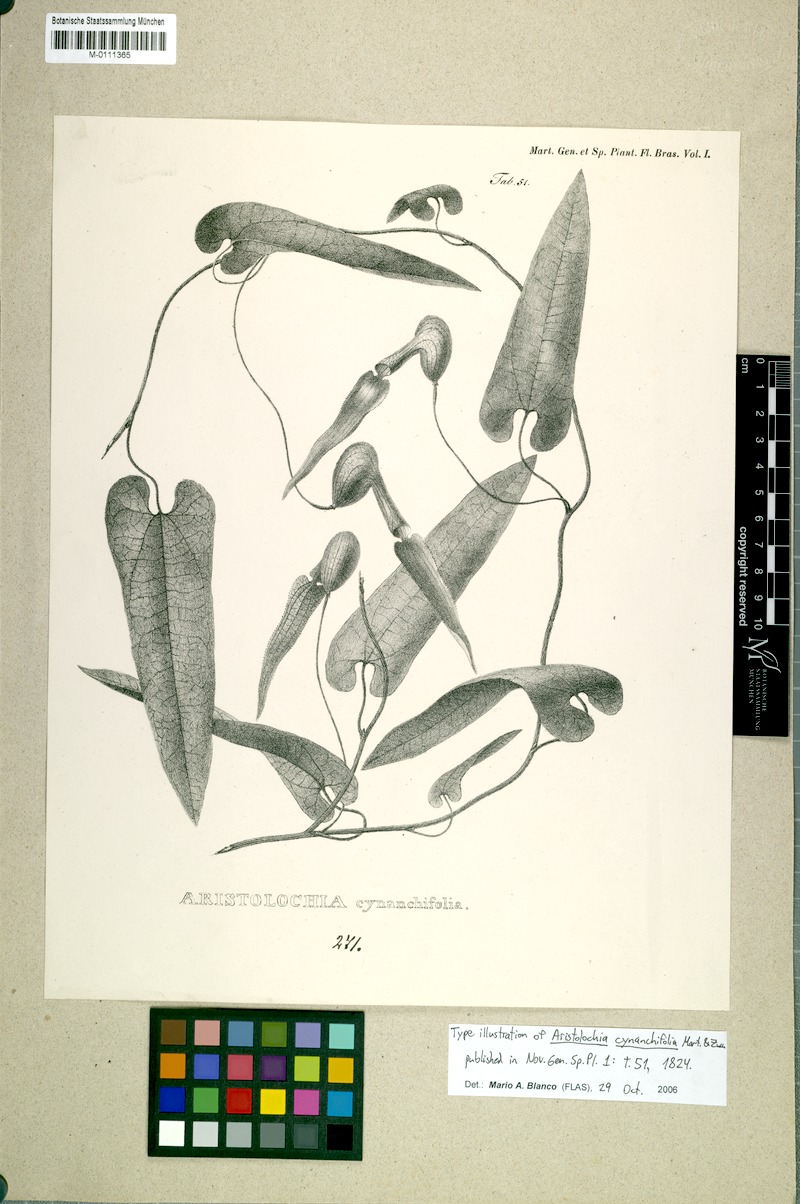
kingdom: Plantae
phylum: Tracheophyta
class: Magnoliopsida
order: Piperales
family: Aristolochiaceae
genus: Aristolochia
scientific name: Aristolochia cynanchifolia
